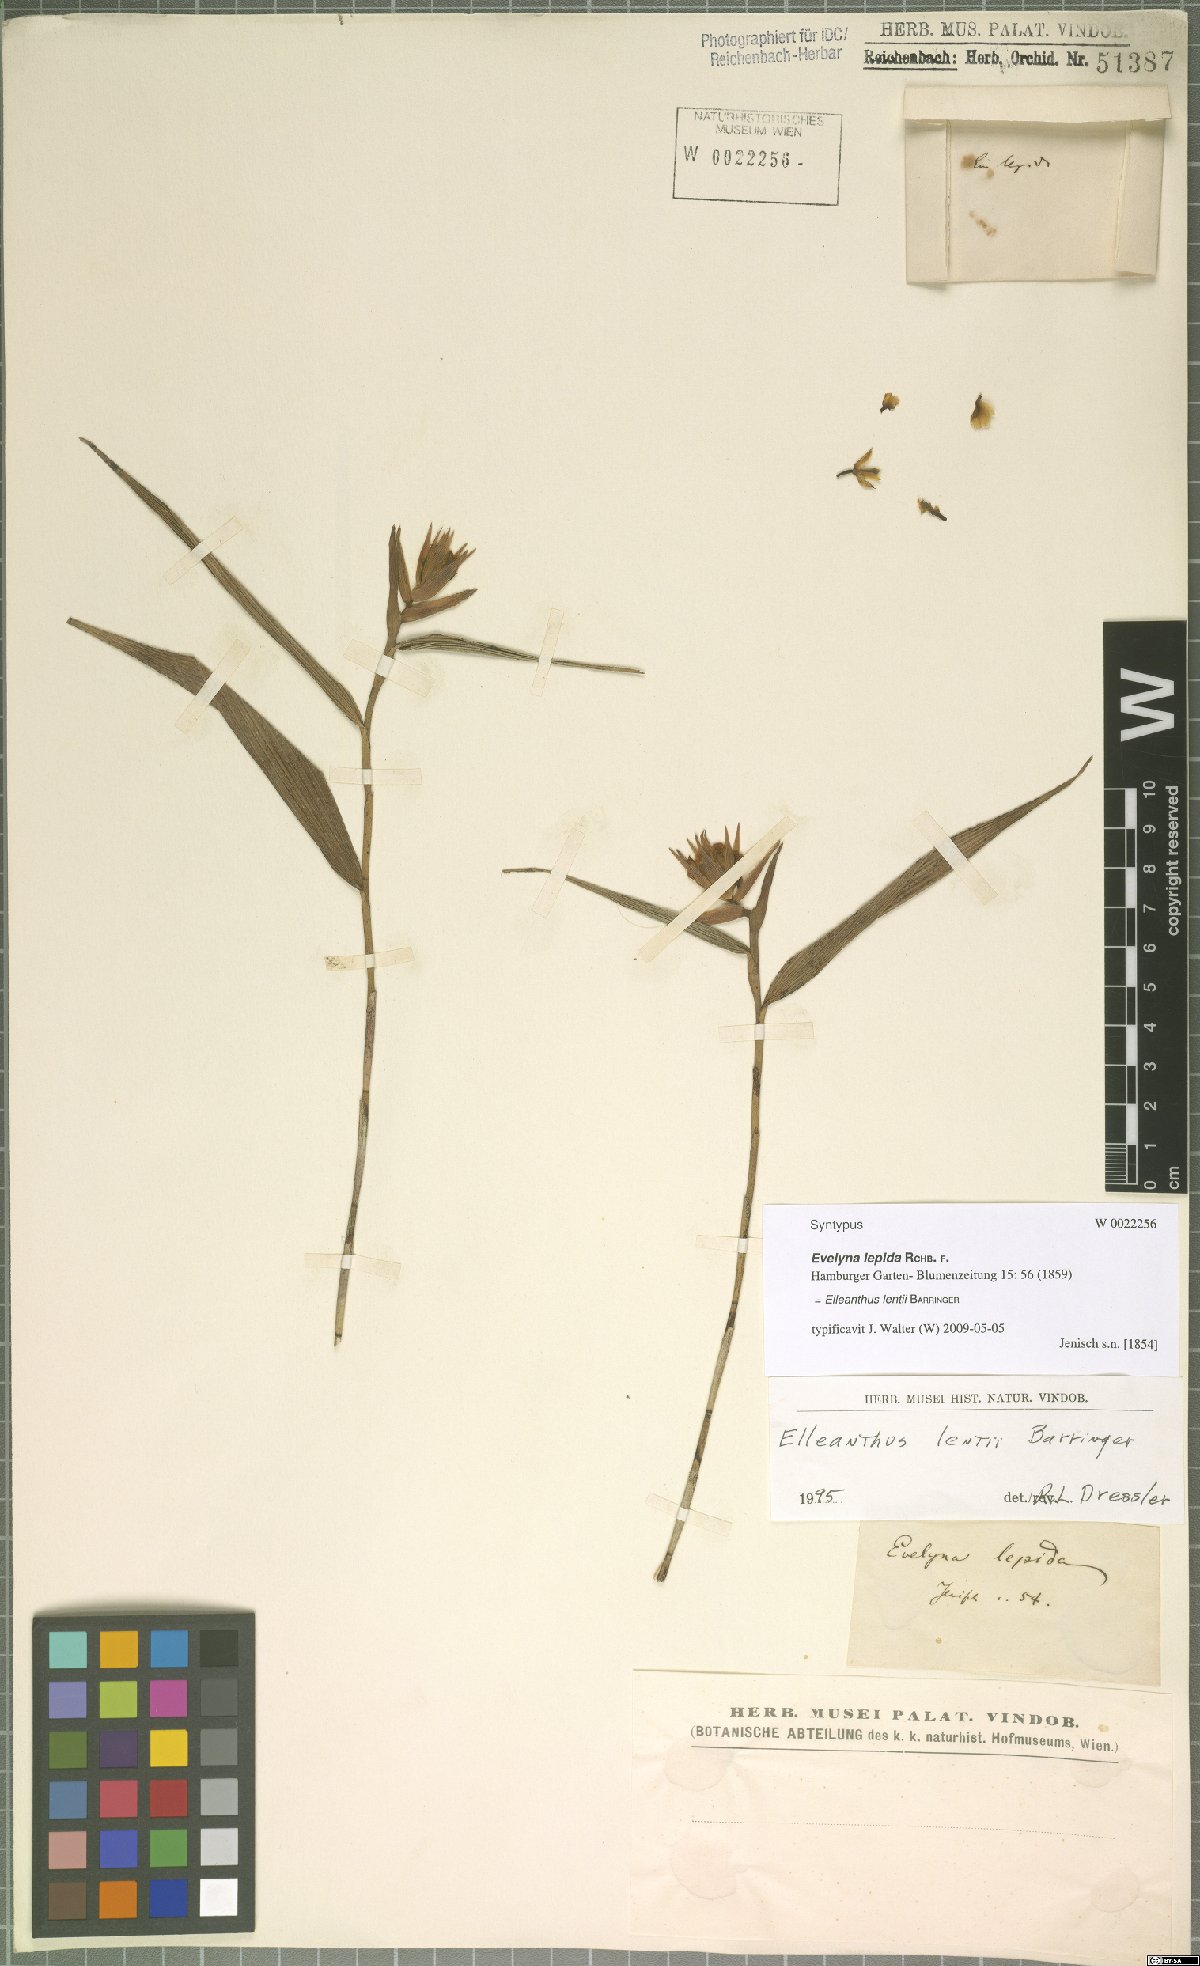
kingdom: Plantae
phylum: Tracheophyta
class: Liliopsida
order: Asparagales
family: Orchidaceae
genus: Elleanthus
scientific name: Elleanthus lentii
